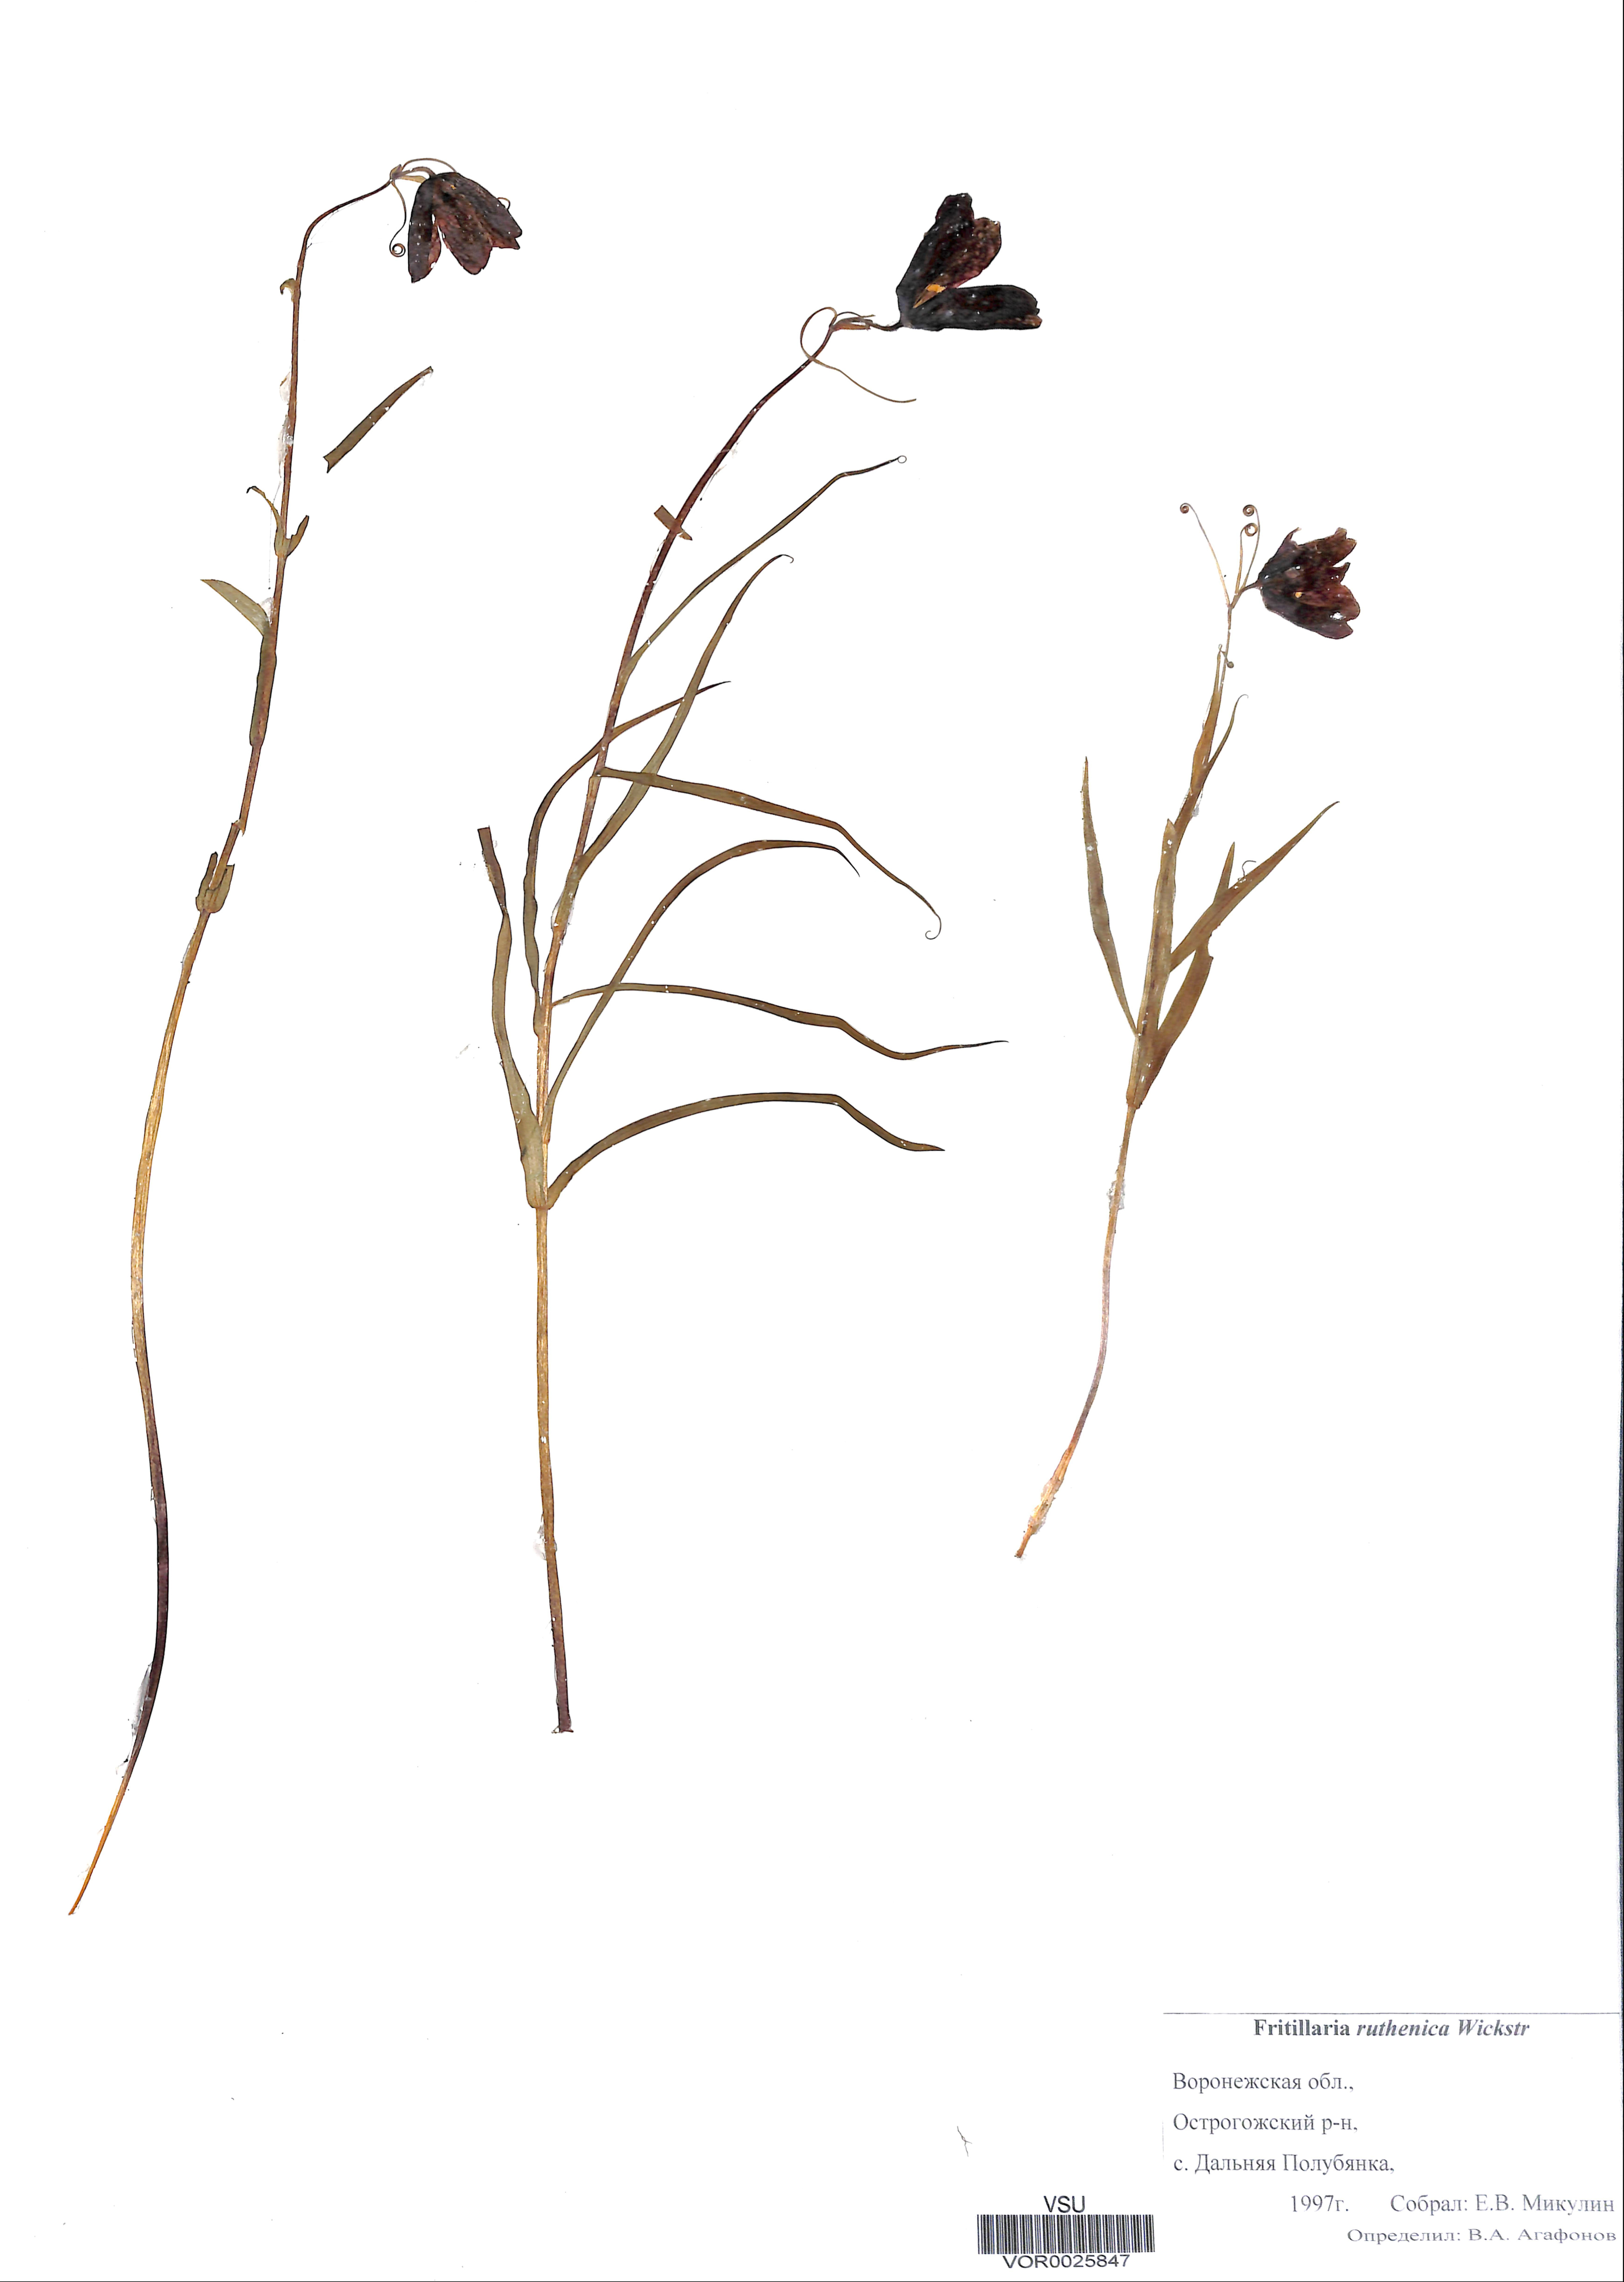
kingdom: Plantae
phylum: Tracheophyta
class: Liliopsida
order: Liliales
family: Liliaceae
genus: Fritillaria
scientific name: Fritillaria ruthenica
